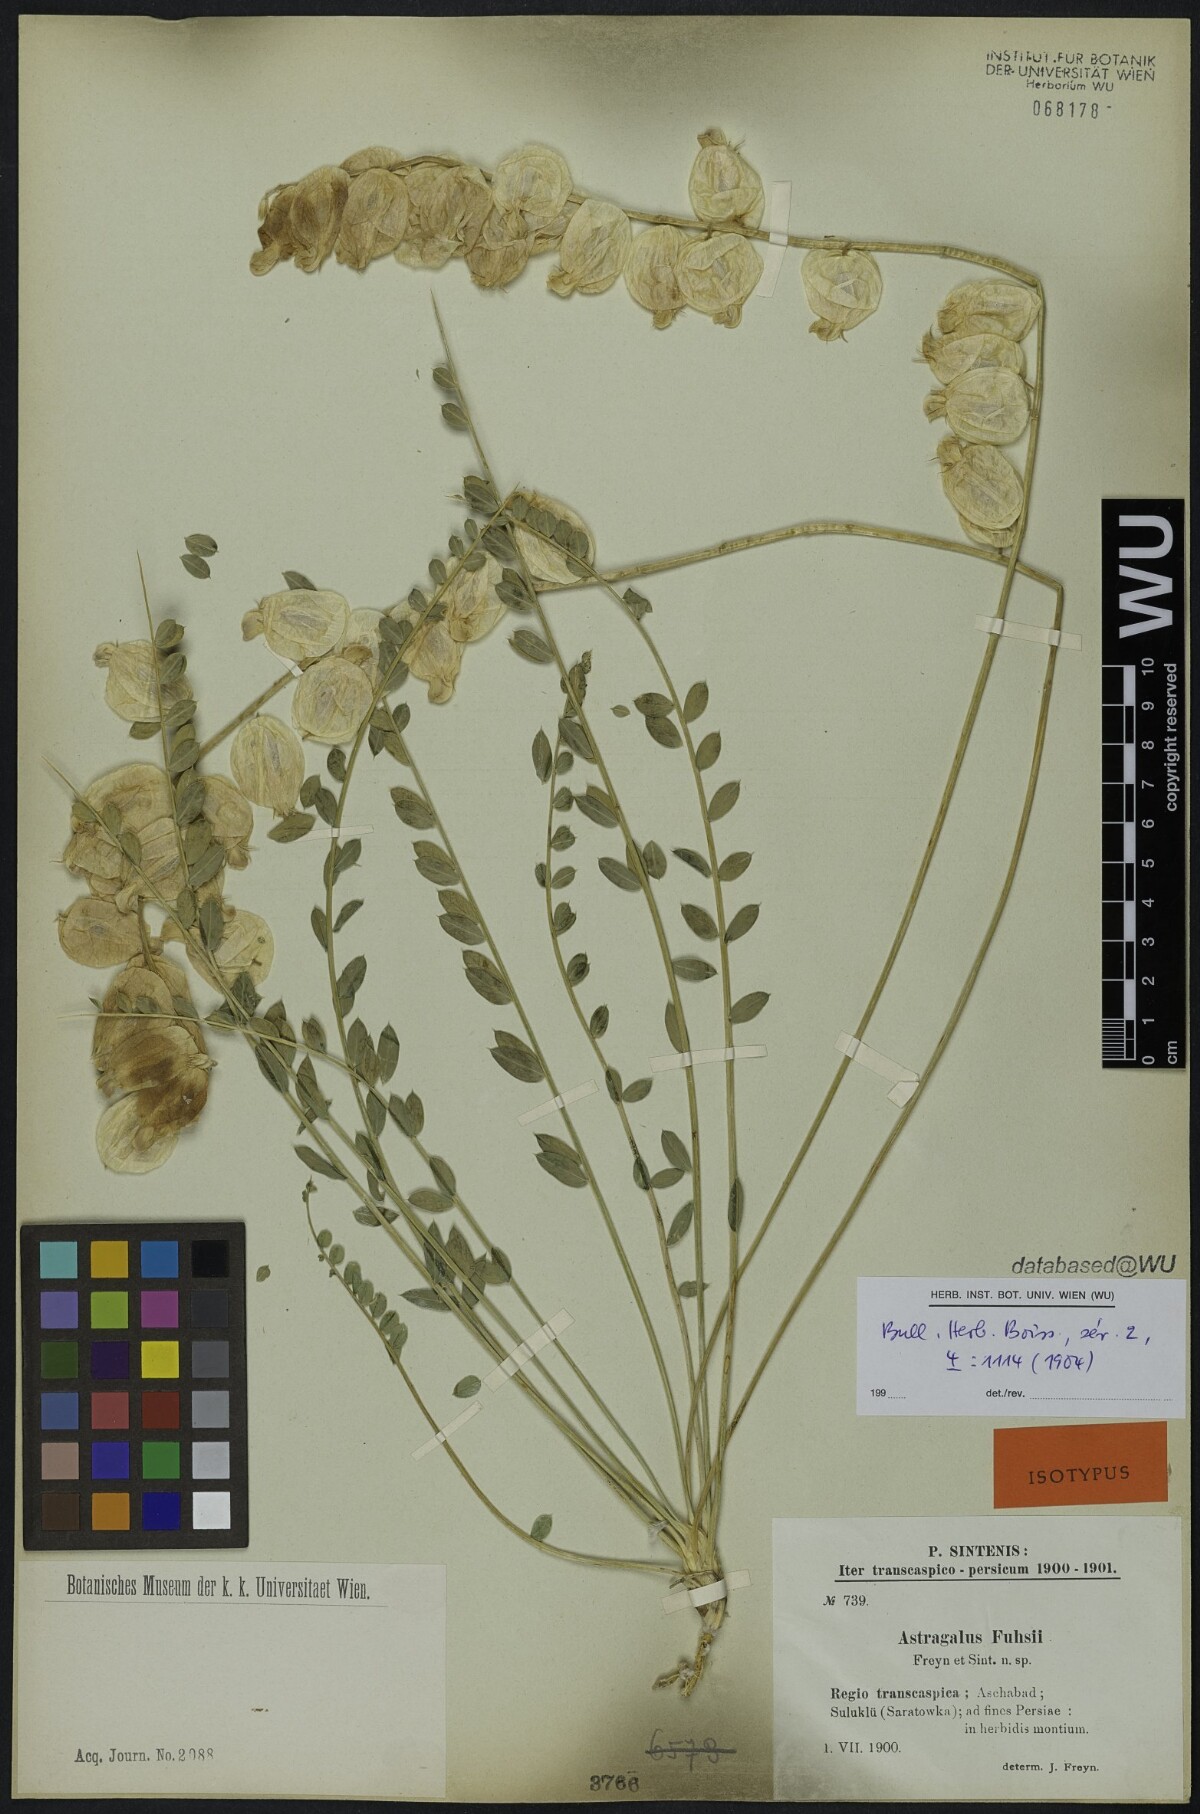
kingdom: Plantae
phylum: Tracheophyta
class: Magnoliopsida
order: Fabales
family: Fabaceae
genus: Astragalus
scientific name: Astragalus fuhsii
